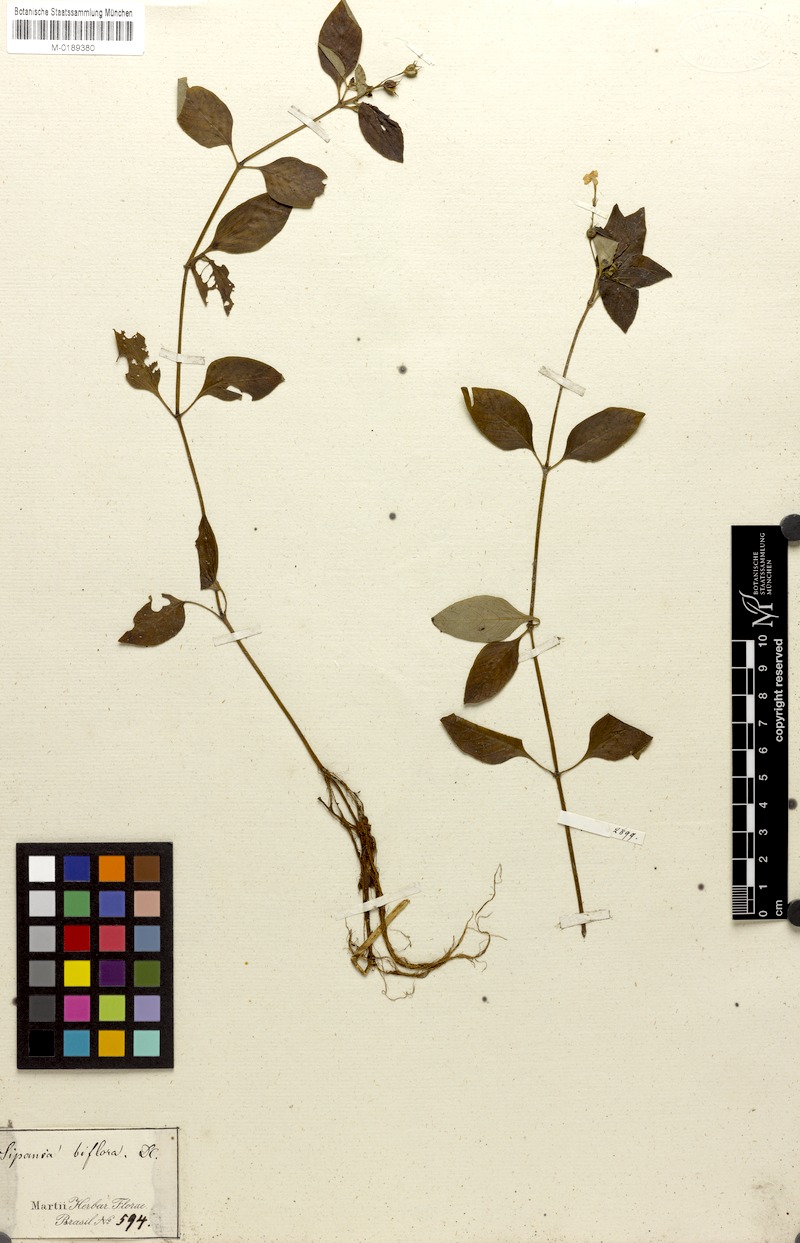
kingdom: Plantae
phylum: Tracheophyta
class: Magnoliopsida
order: Gentianales
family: Rubiaceae
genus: Sipanea
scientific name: Sipanea biflora
